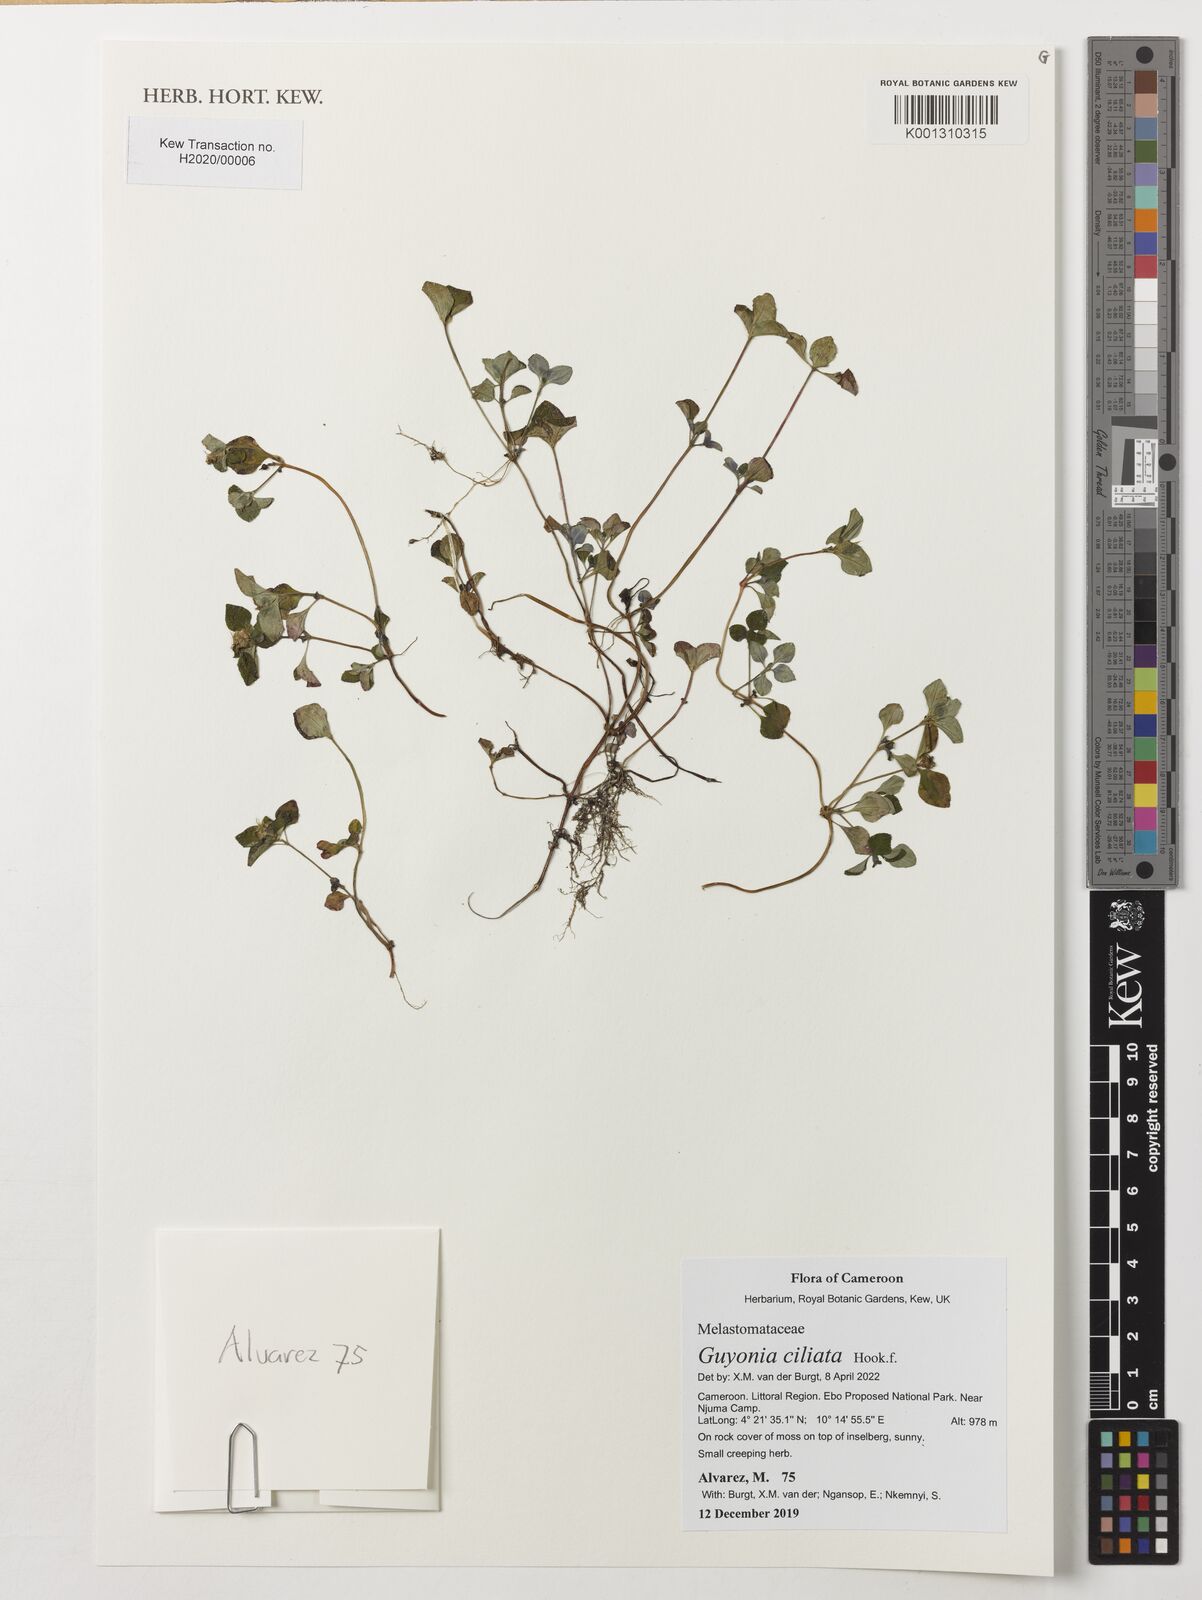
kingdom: Plantae
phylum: Tracheophyta
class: Magnoliopsida
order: Myrtales
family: Melastomataceae
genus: Guyonia
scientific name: Guyonia ciliata
